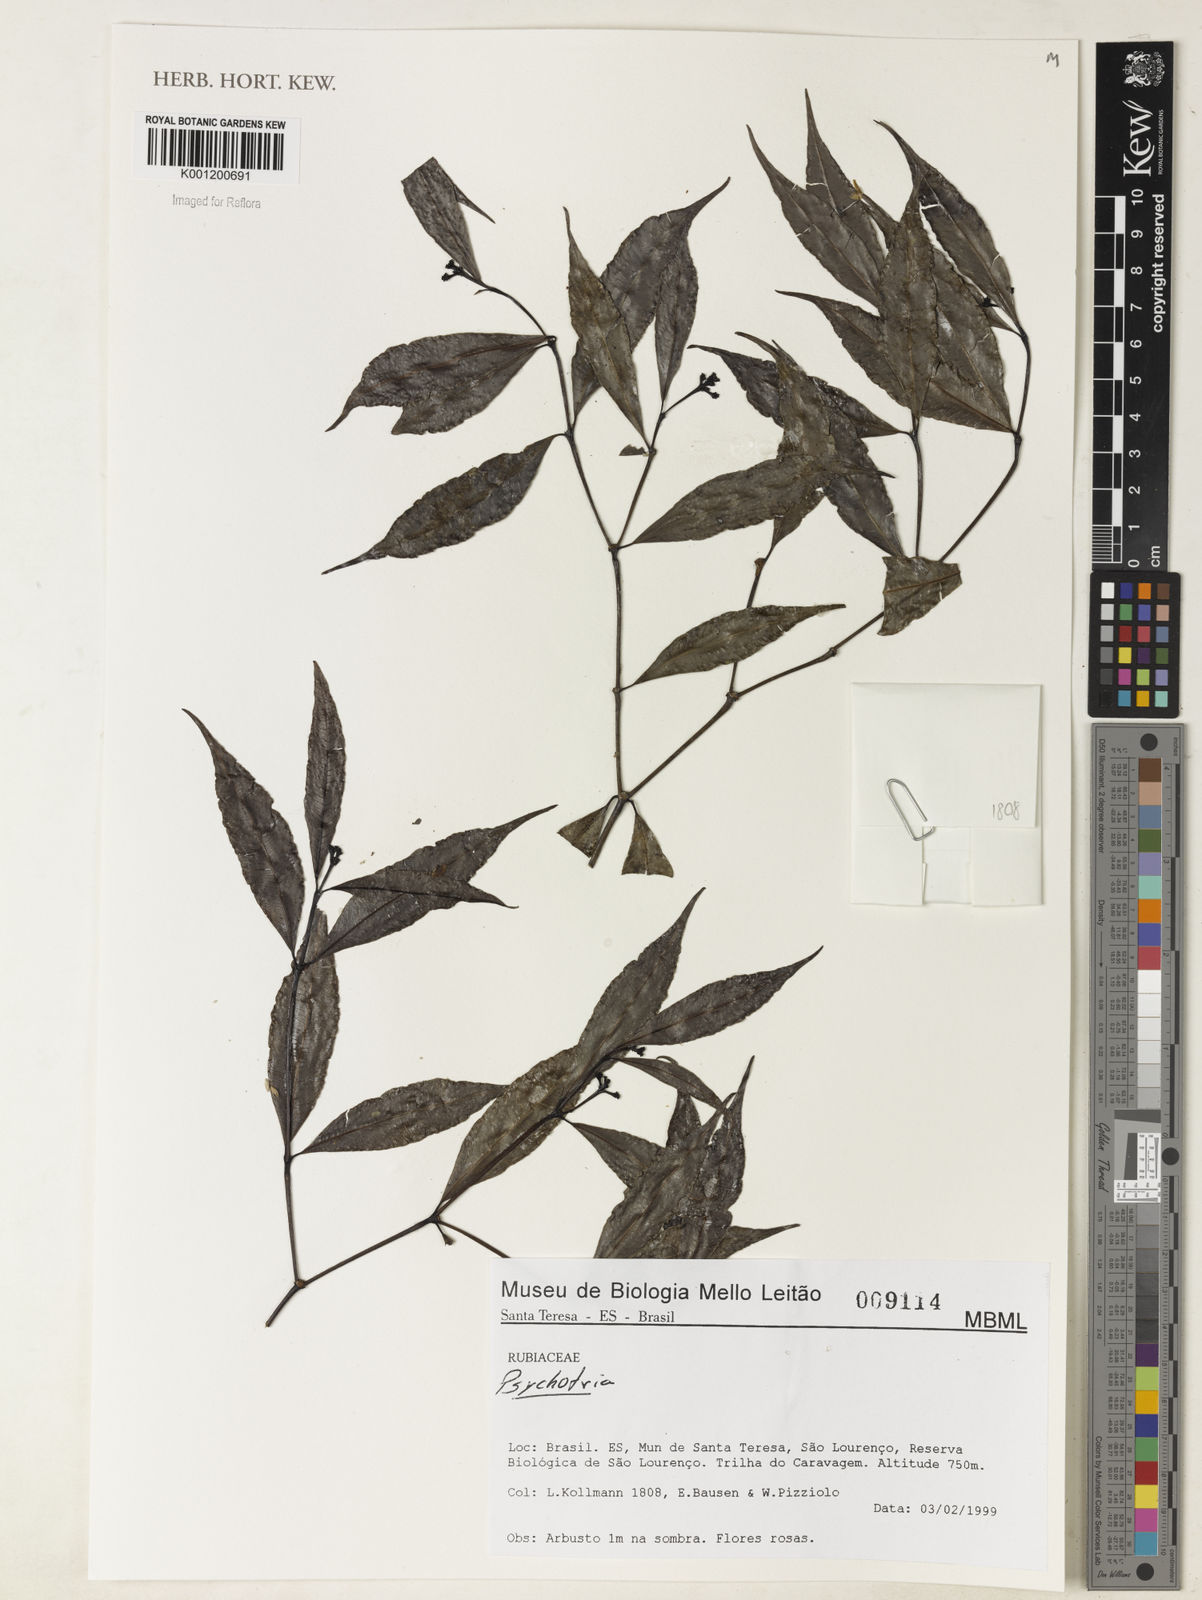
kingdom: Plantae
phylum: Tracheophyta
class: Magnoliopsida
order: Gentianales
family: Rubiaceae
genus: Psychotria
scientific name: Psychotria
